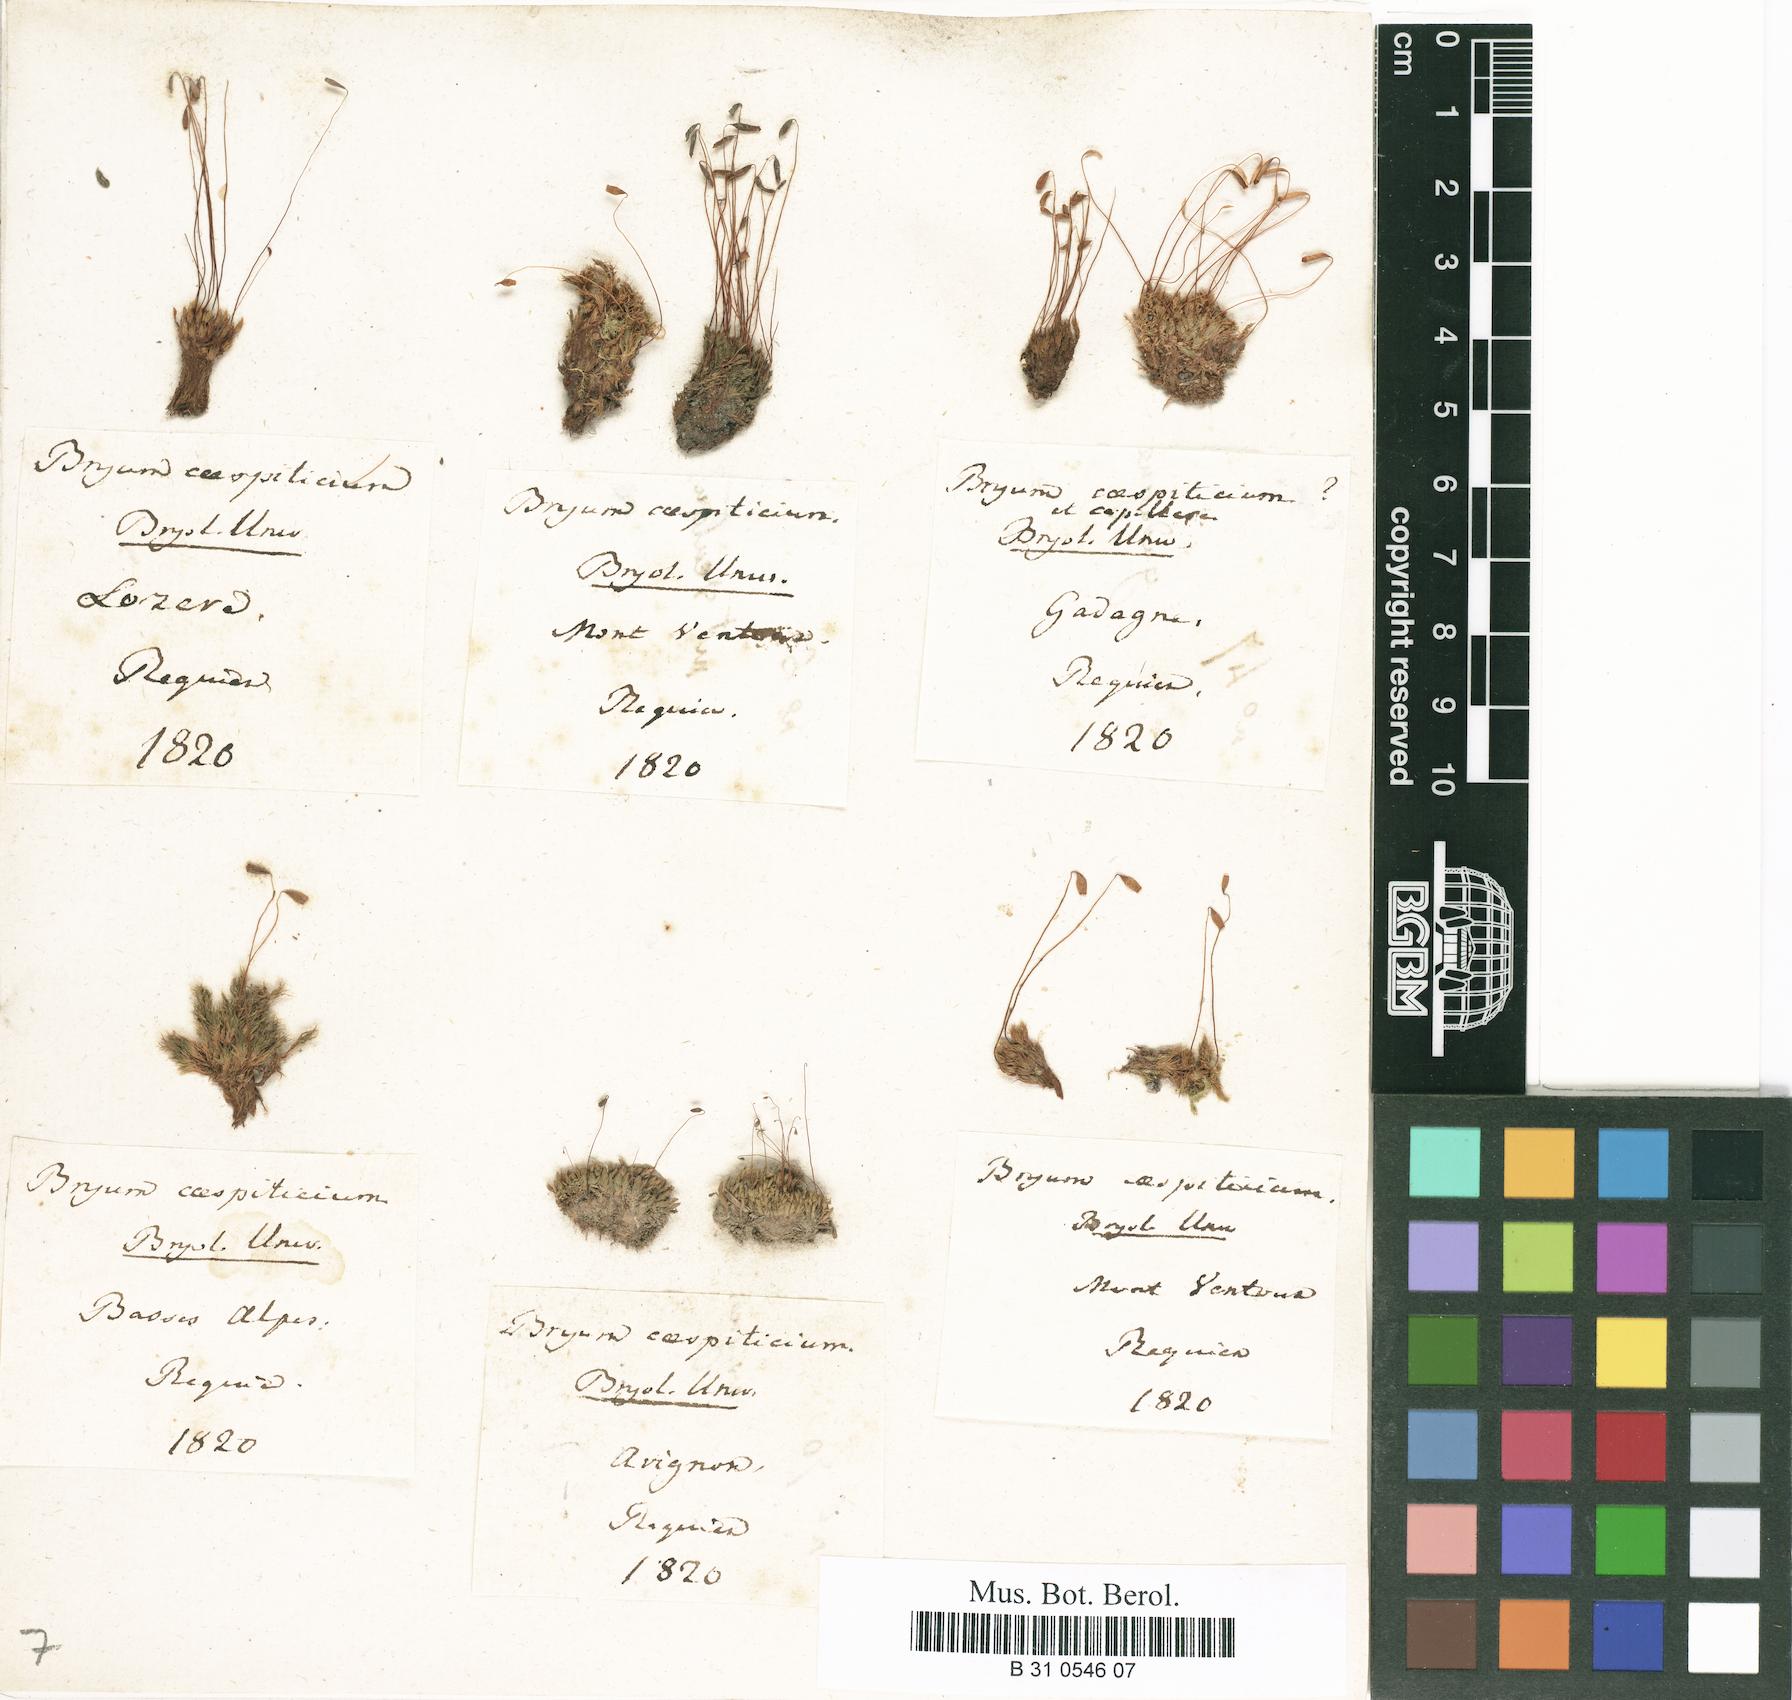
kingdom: Plantae
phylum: Bryophyta
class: Bryopsida
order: Bryales
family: Bryaceae
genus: Gemmabryum
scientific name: Gemmabryum caespiticium
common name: Handbell moss
